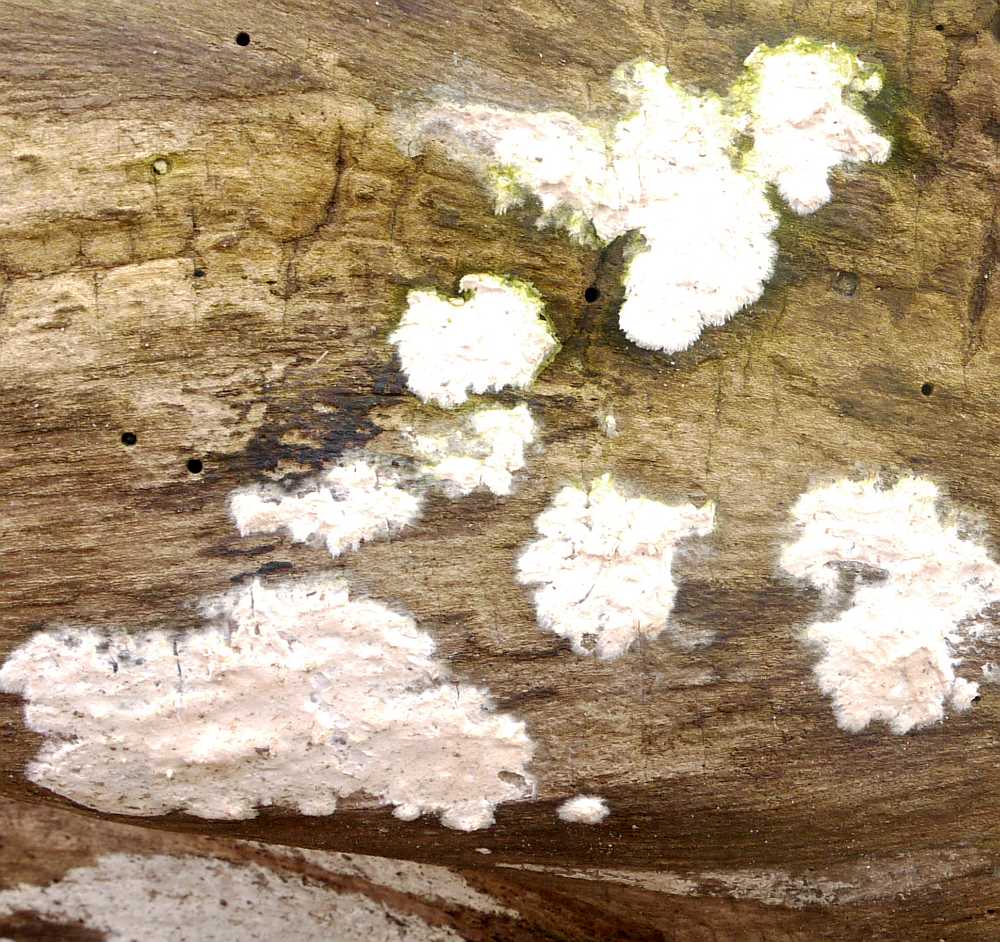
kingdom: Fungi
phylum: Basidiomycota
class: Agaricomycetes
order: Agaricales
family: Cyphellaceae
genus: Granulobasidium
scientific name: Granulobasidium vellereum
